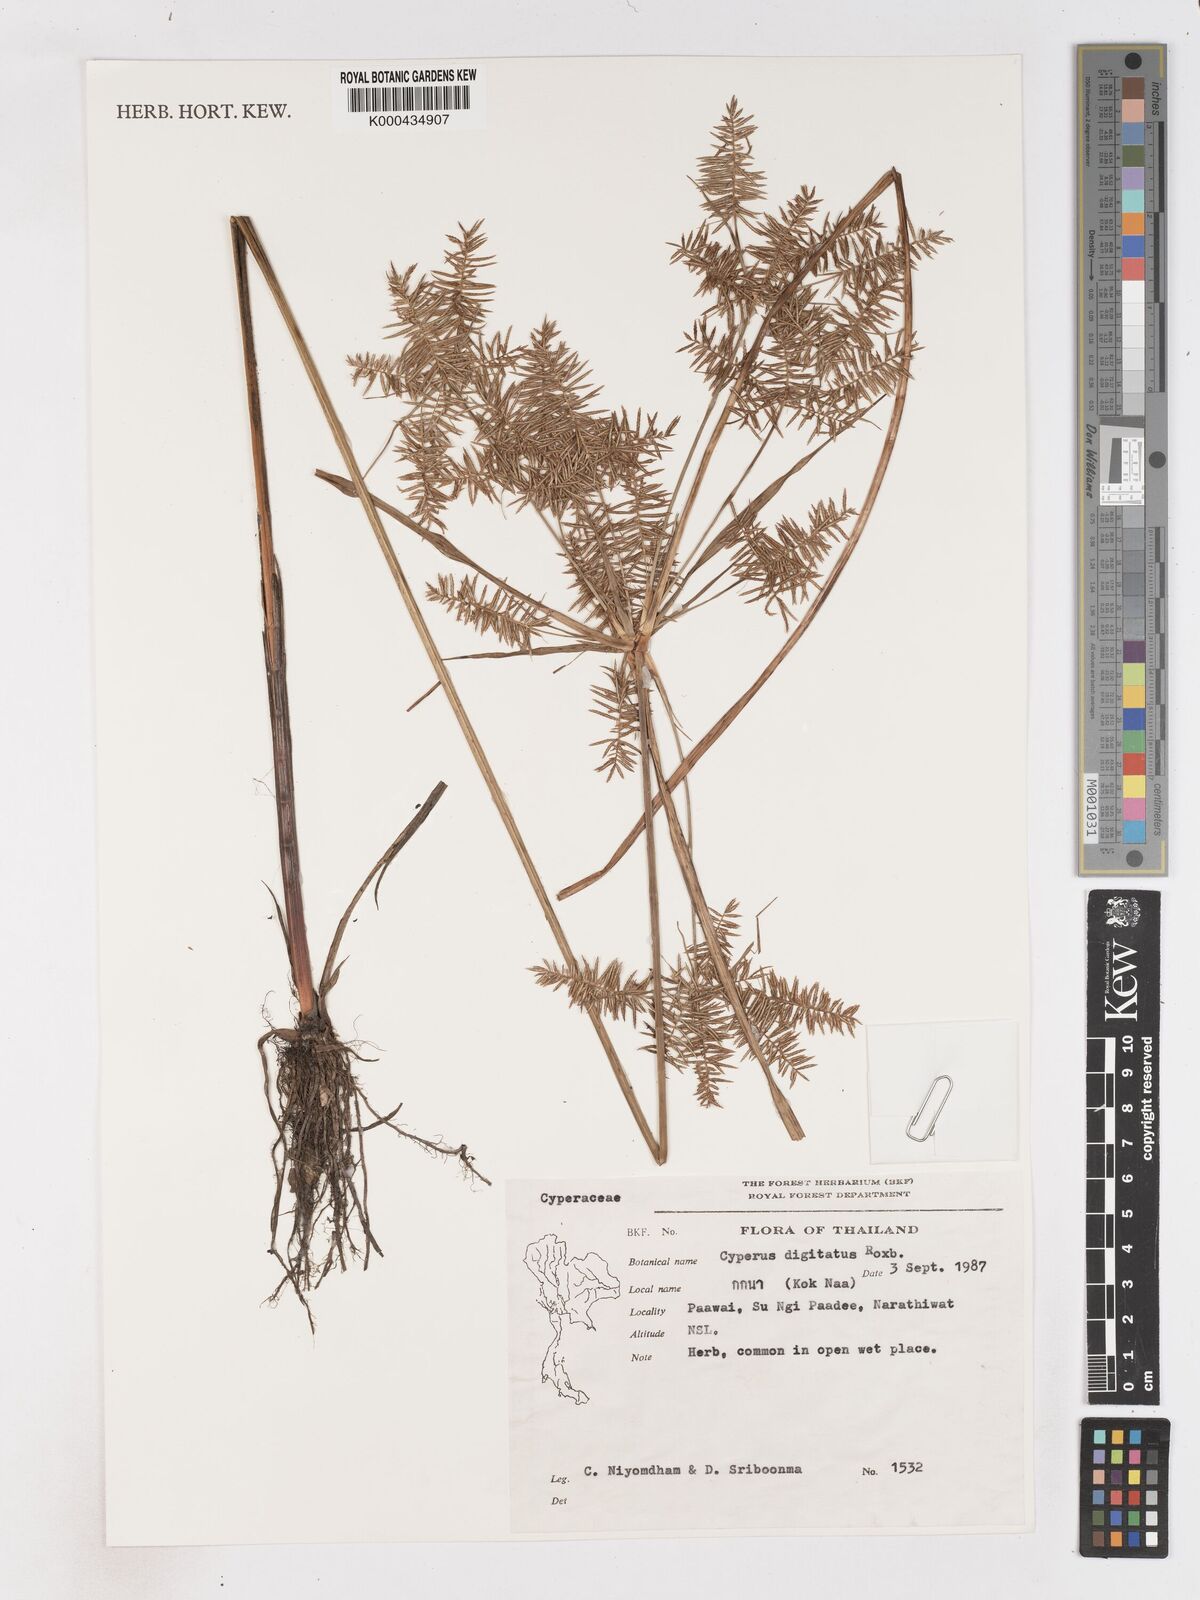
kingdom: Plantae
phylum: Tracheophyta
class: Liliopsida
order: Poales
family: Cyperaceae
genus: Cyperus
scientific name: Cyperus digitatus
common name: Finger flatsedge
